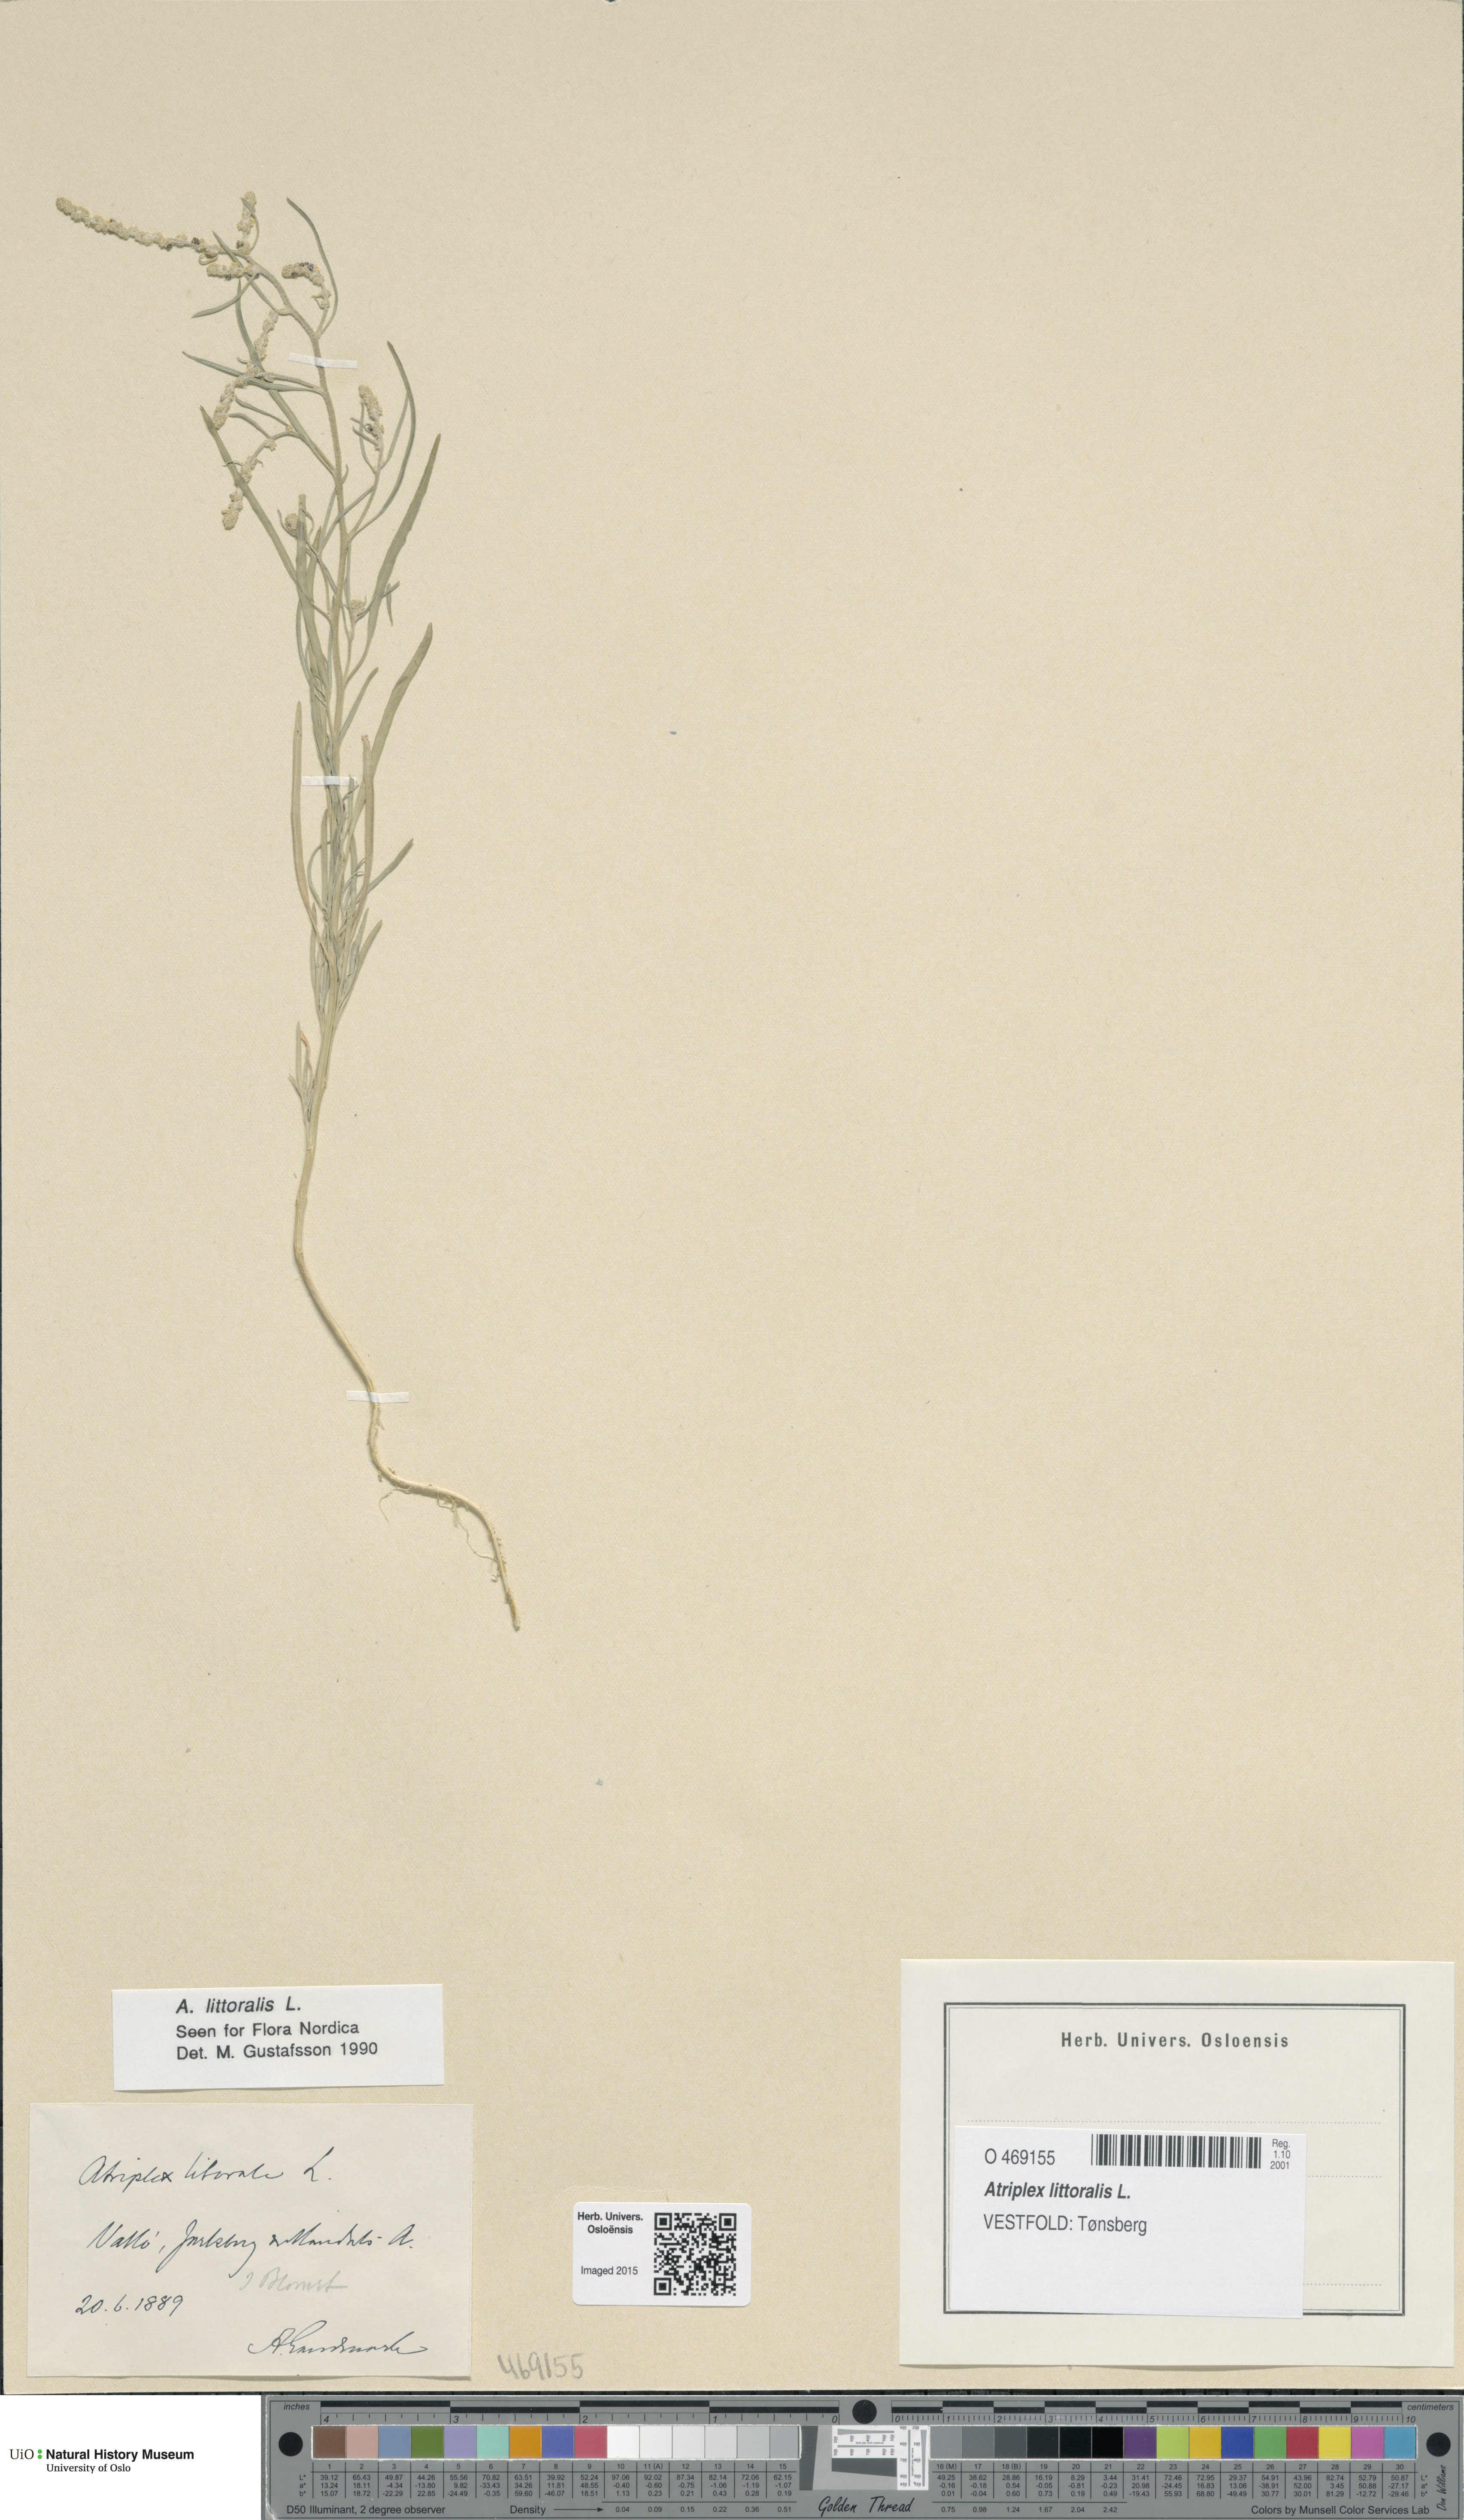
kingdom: Plantae
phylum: Tracheophyta
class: Magnoliopsida
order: Caryophyllales
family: Amaranthaceae
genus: Atriplex
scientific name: Atriplex littoralis
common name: Grass-leaved orache
